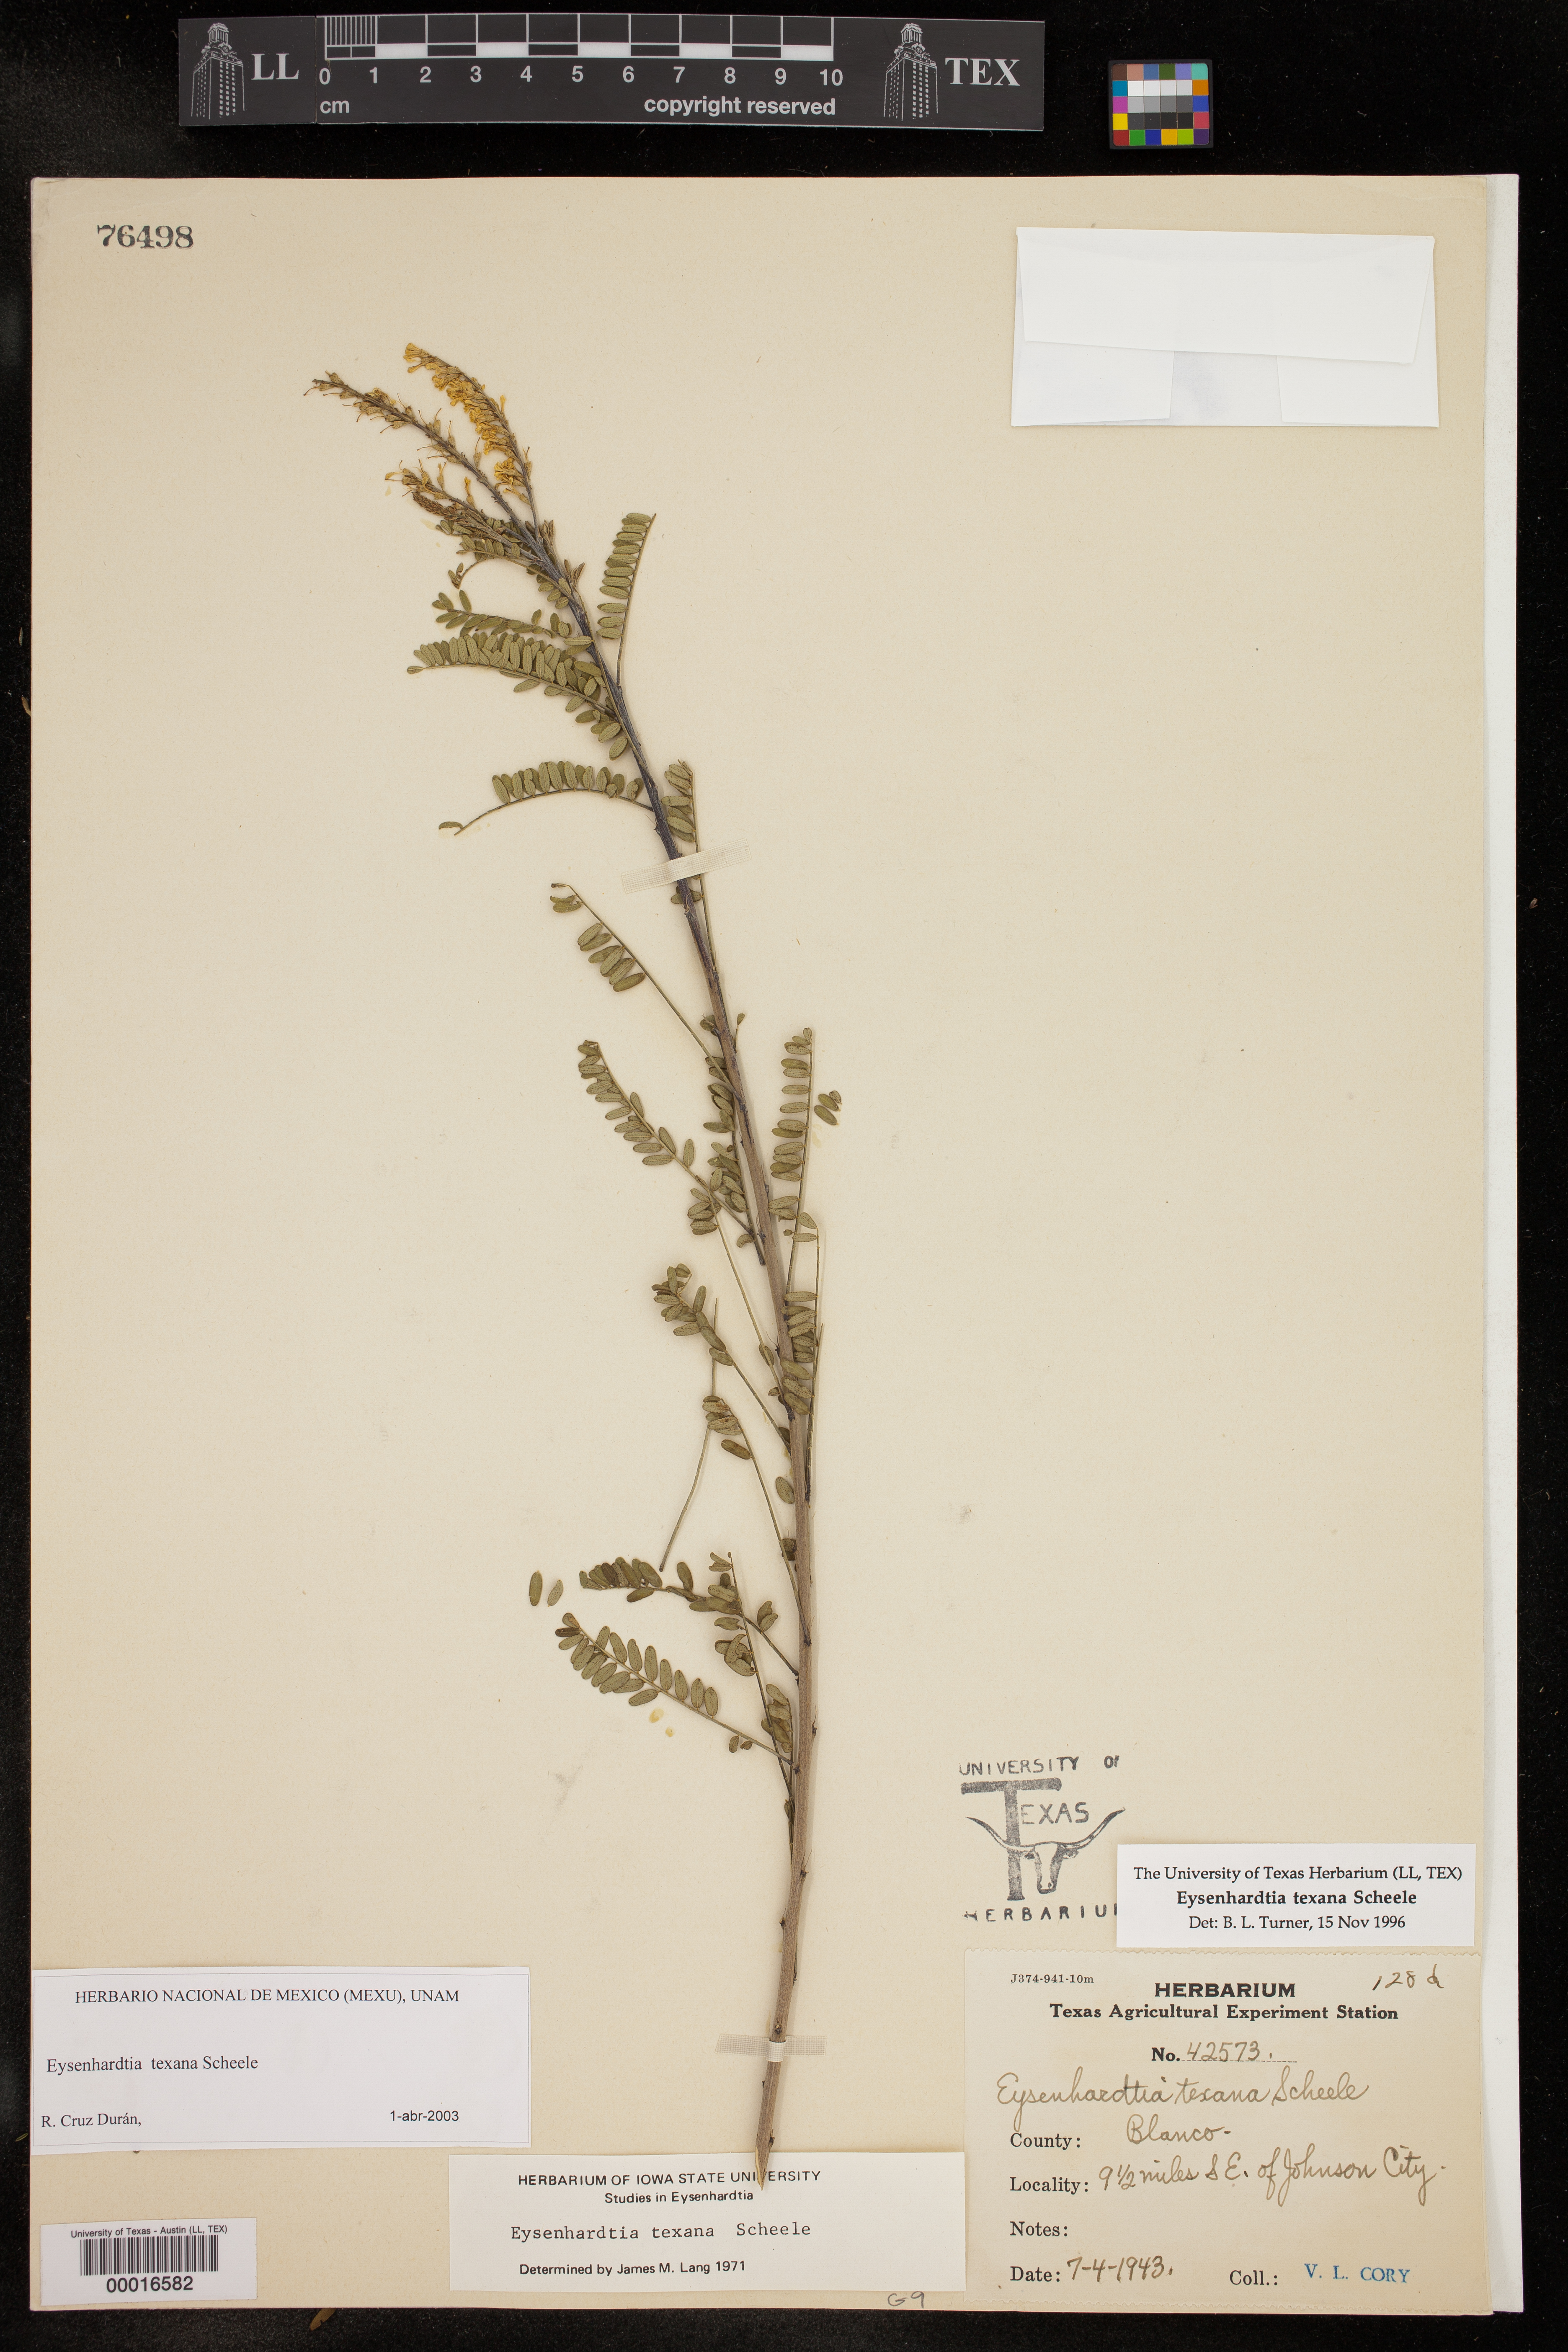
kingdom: Plantae
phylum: Tracheophyta
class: Magnoliopsida
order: Fabales
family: Fabaceae
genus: Eysenhardtia
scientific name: Eysenhardtia texana
